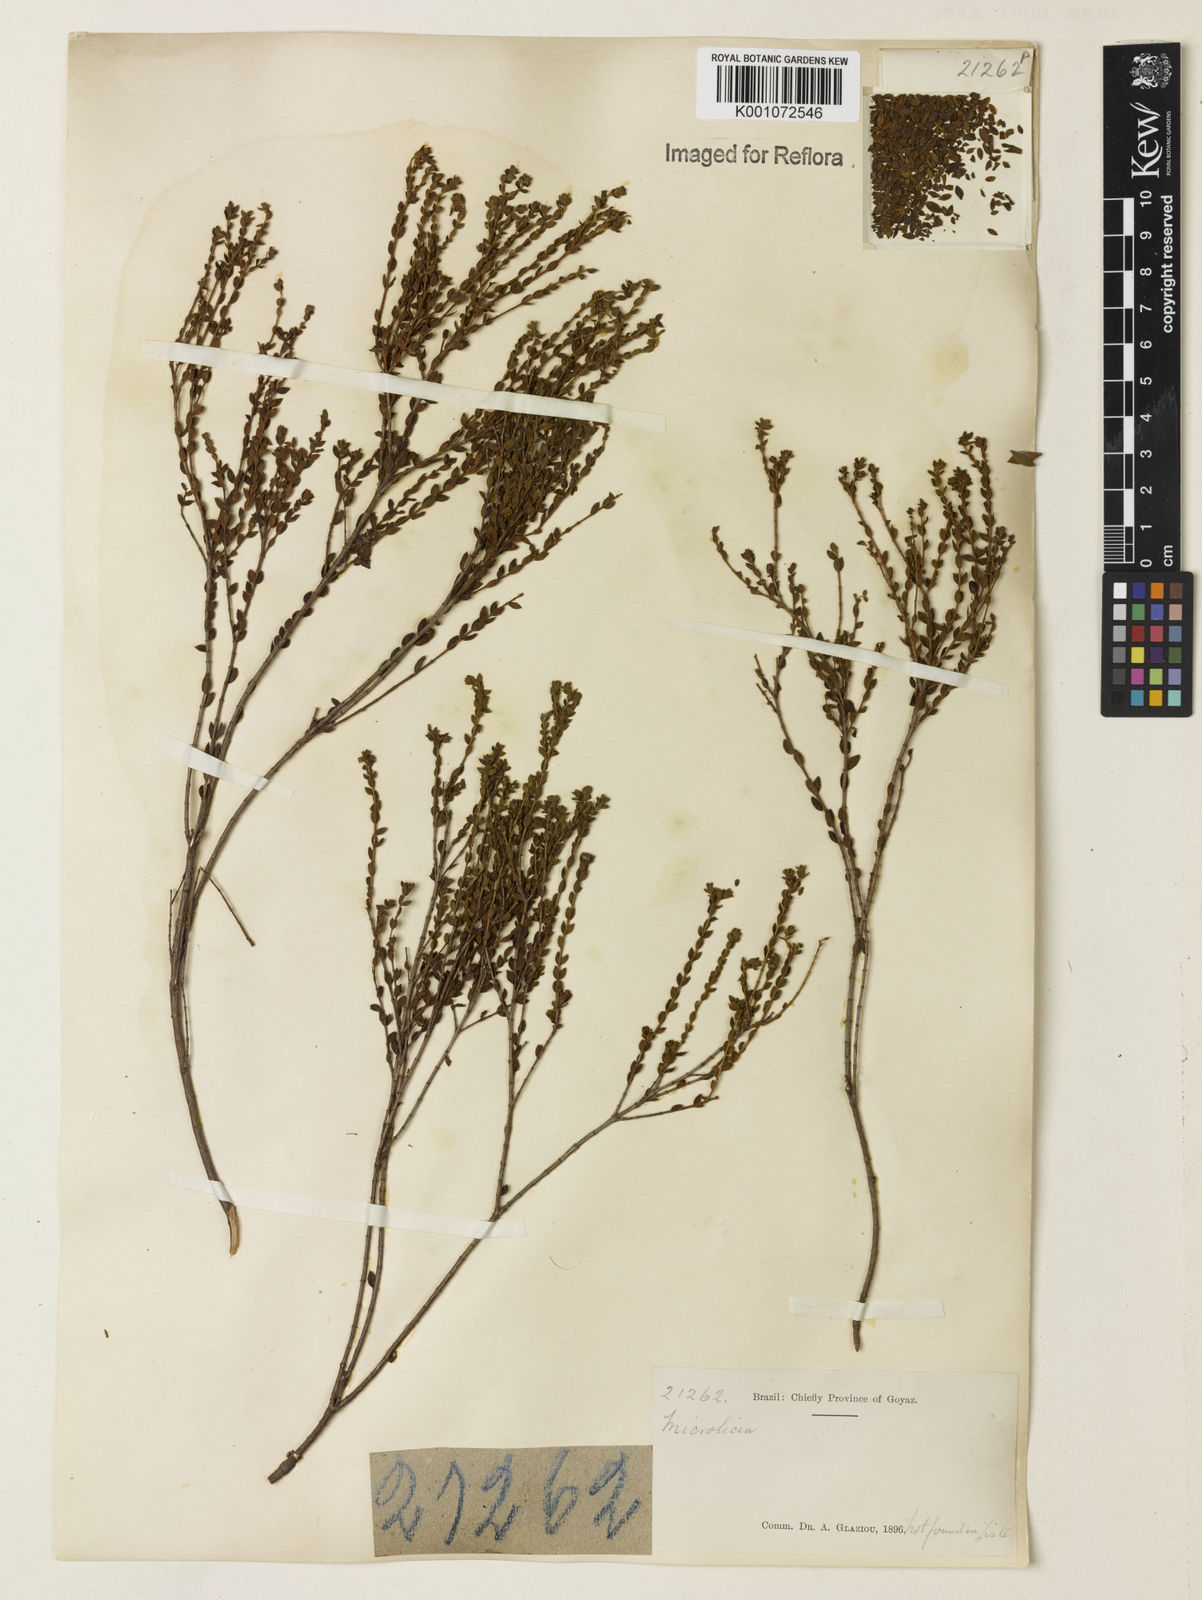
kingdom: Plantae
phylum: Tracheophyta
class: Magnoliopsida
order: Myrtales
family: Melastomataceae
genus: Microlicia
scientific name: Microlicia
